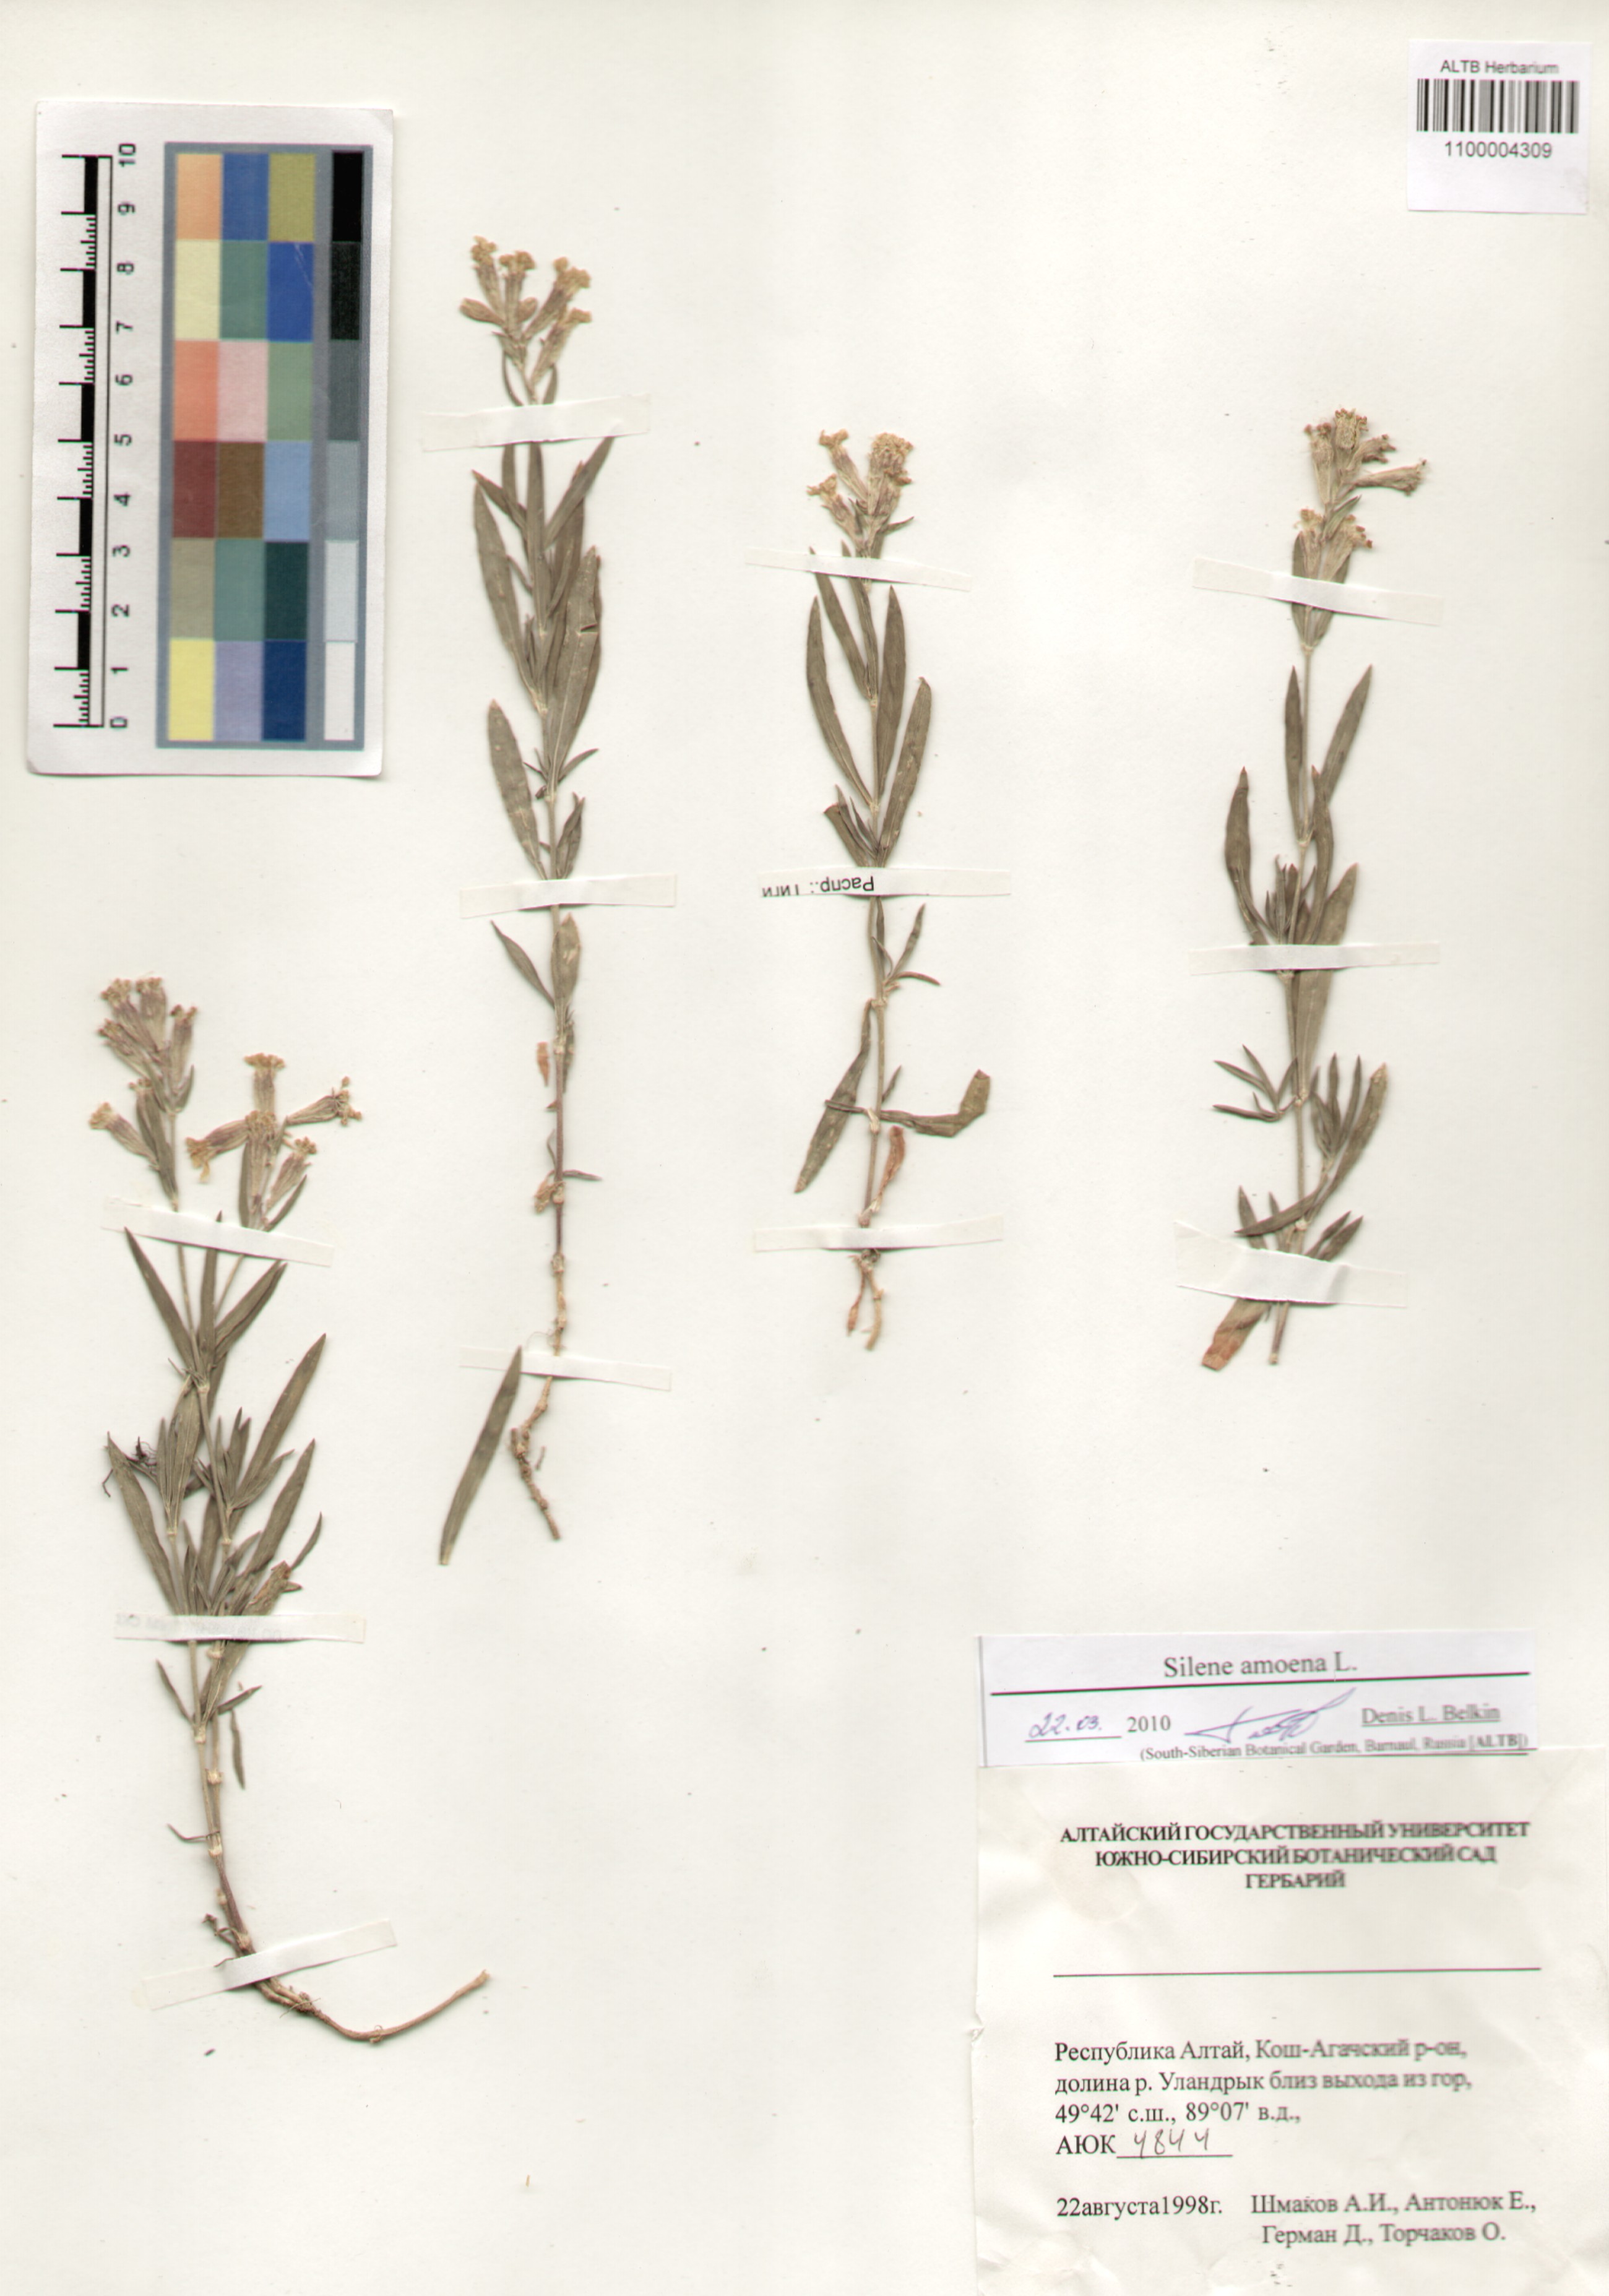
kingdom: Plantae
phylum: Tracheophyta
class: Magnoliopsida
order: Caryophyllales
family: Caryophyllaceae
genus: Silene
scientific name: Silene amoena
